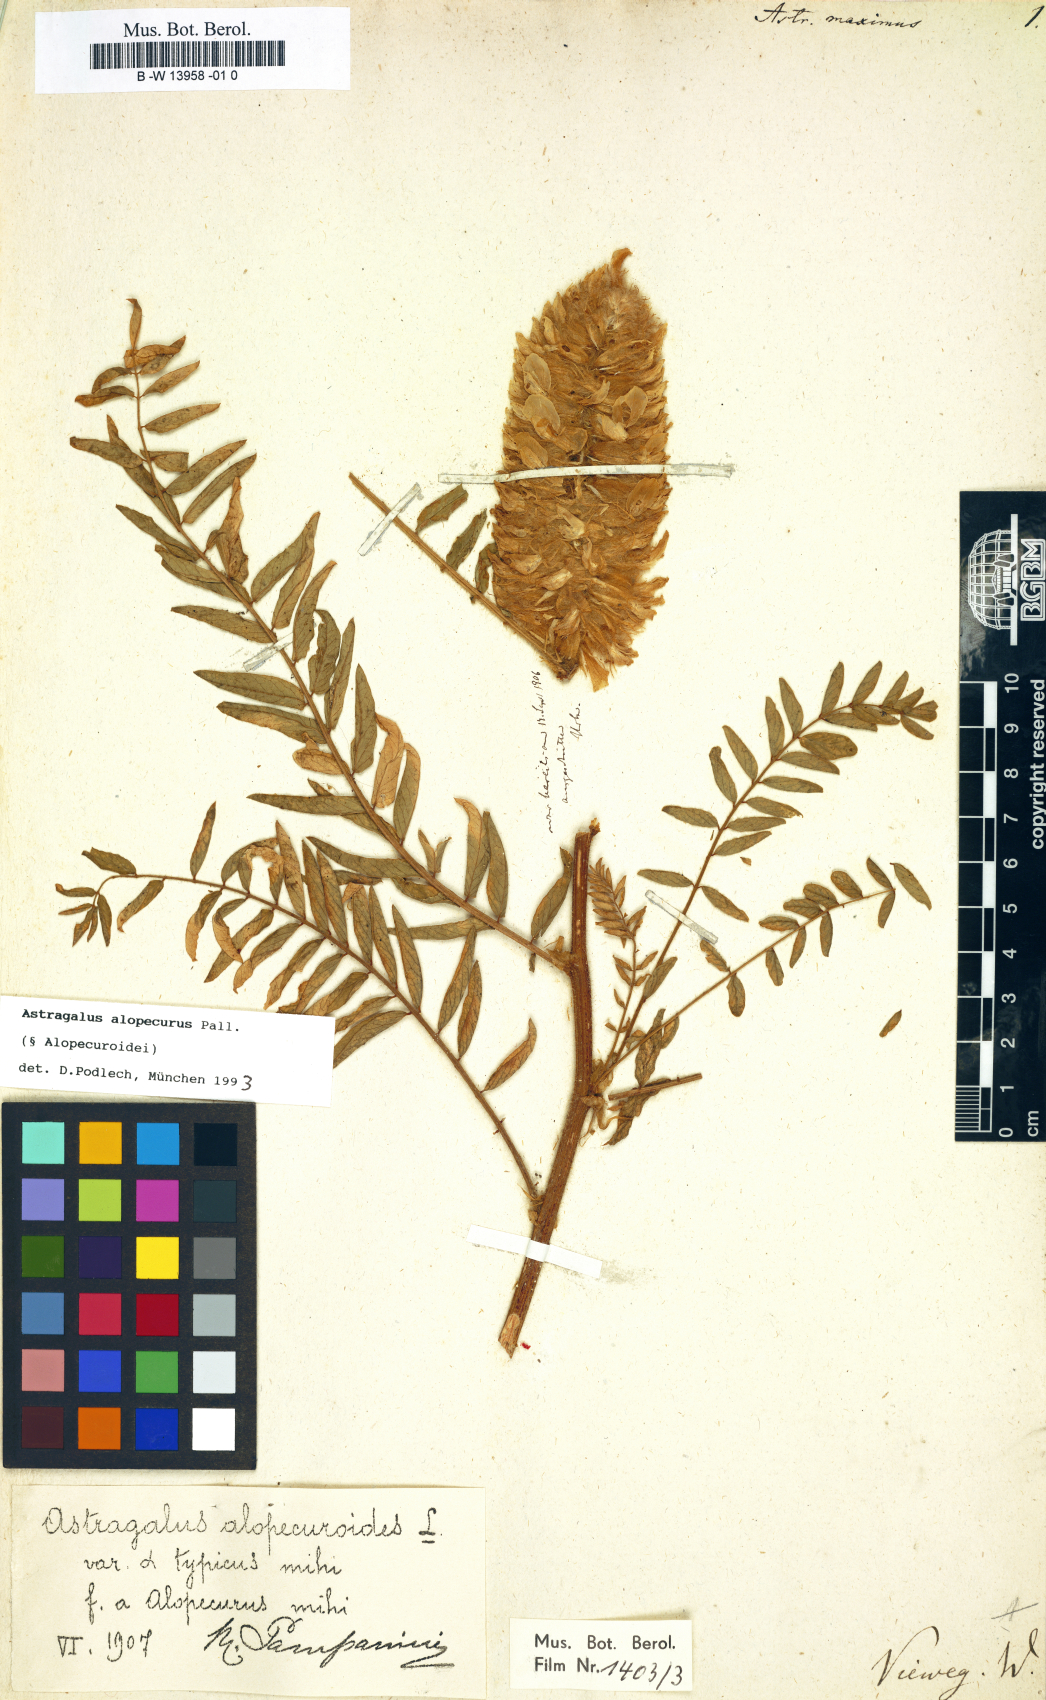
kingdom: Plantae
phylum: Tracheophyta
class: Magnoliopsida
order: Fabales
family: Fabaceae
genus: Astragalus
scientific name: Astragalus alopecurus
